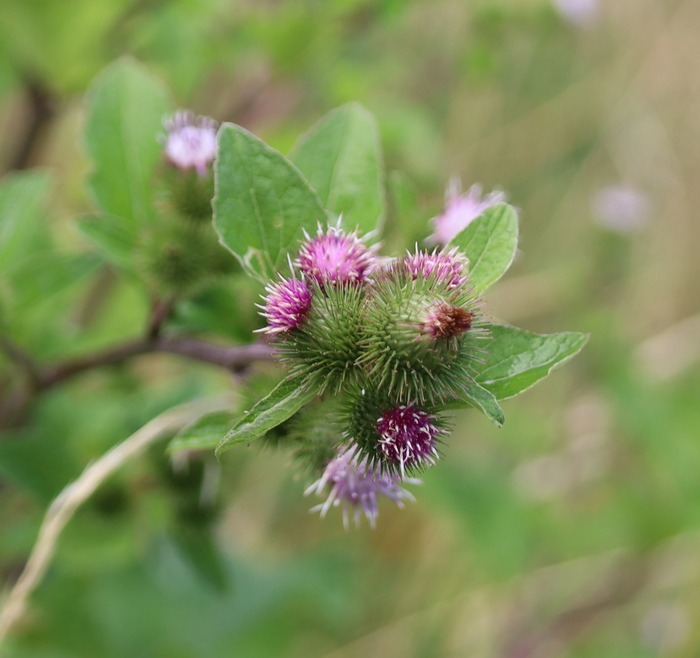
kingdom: Plantae
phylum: Tracheophyta
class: Magnoliopsida
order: Asterales
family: Asteraceae
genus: Arctium
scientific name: Arctium minus
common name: Liden burre
